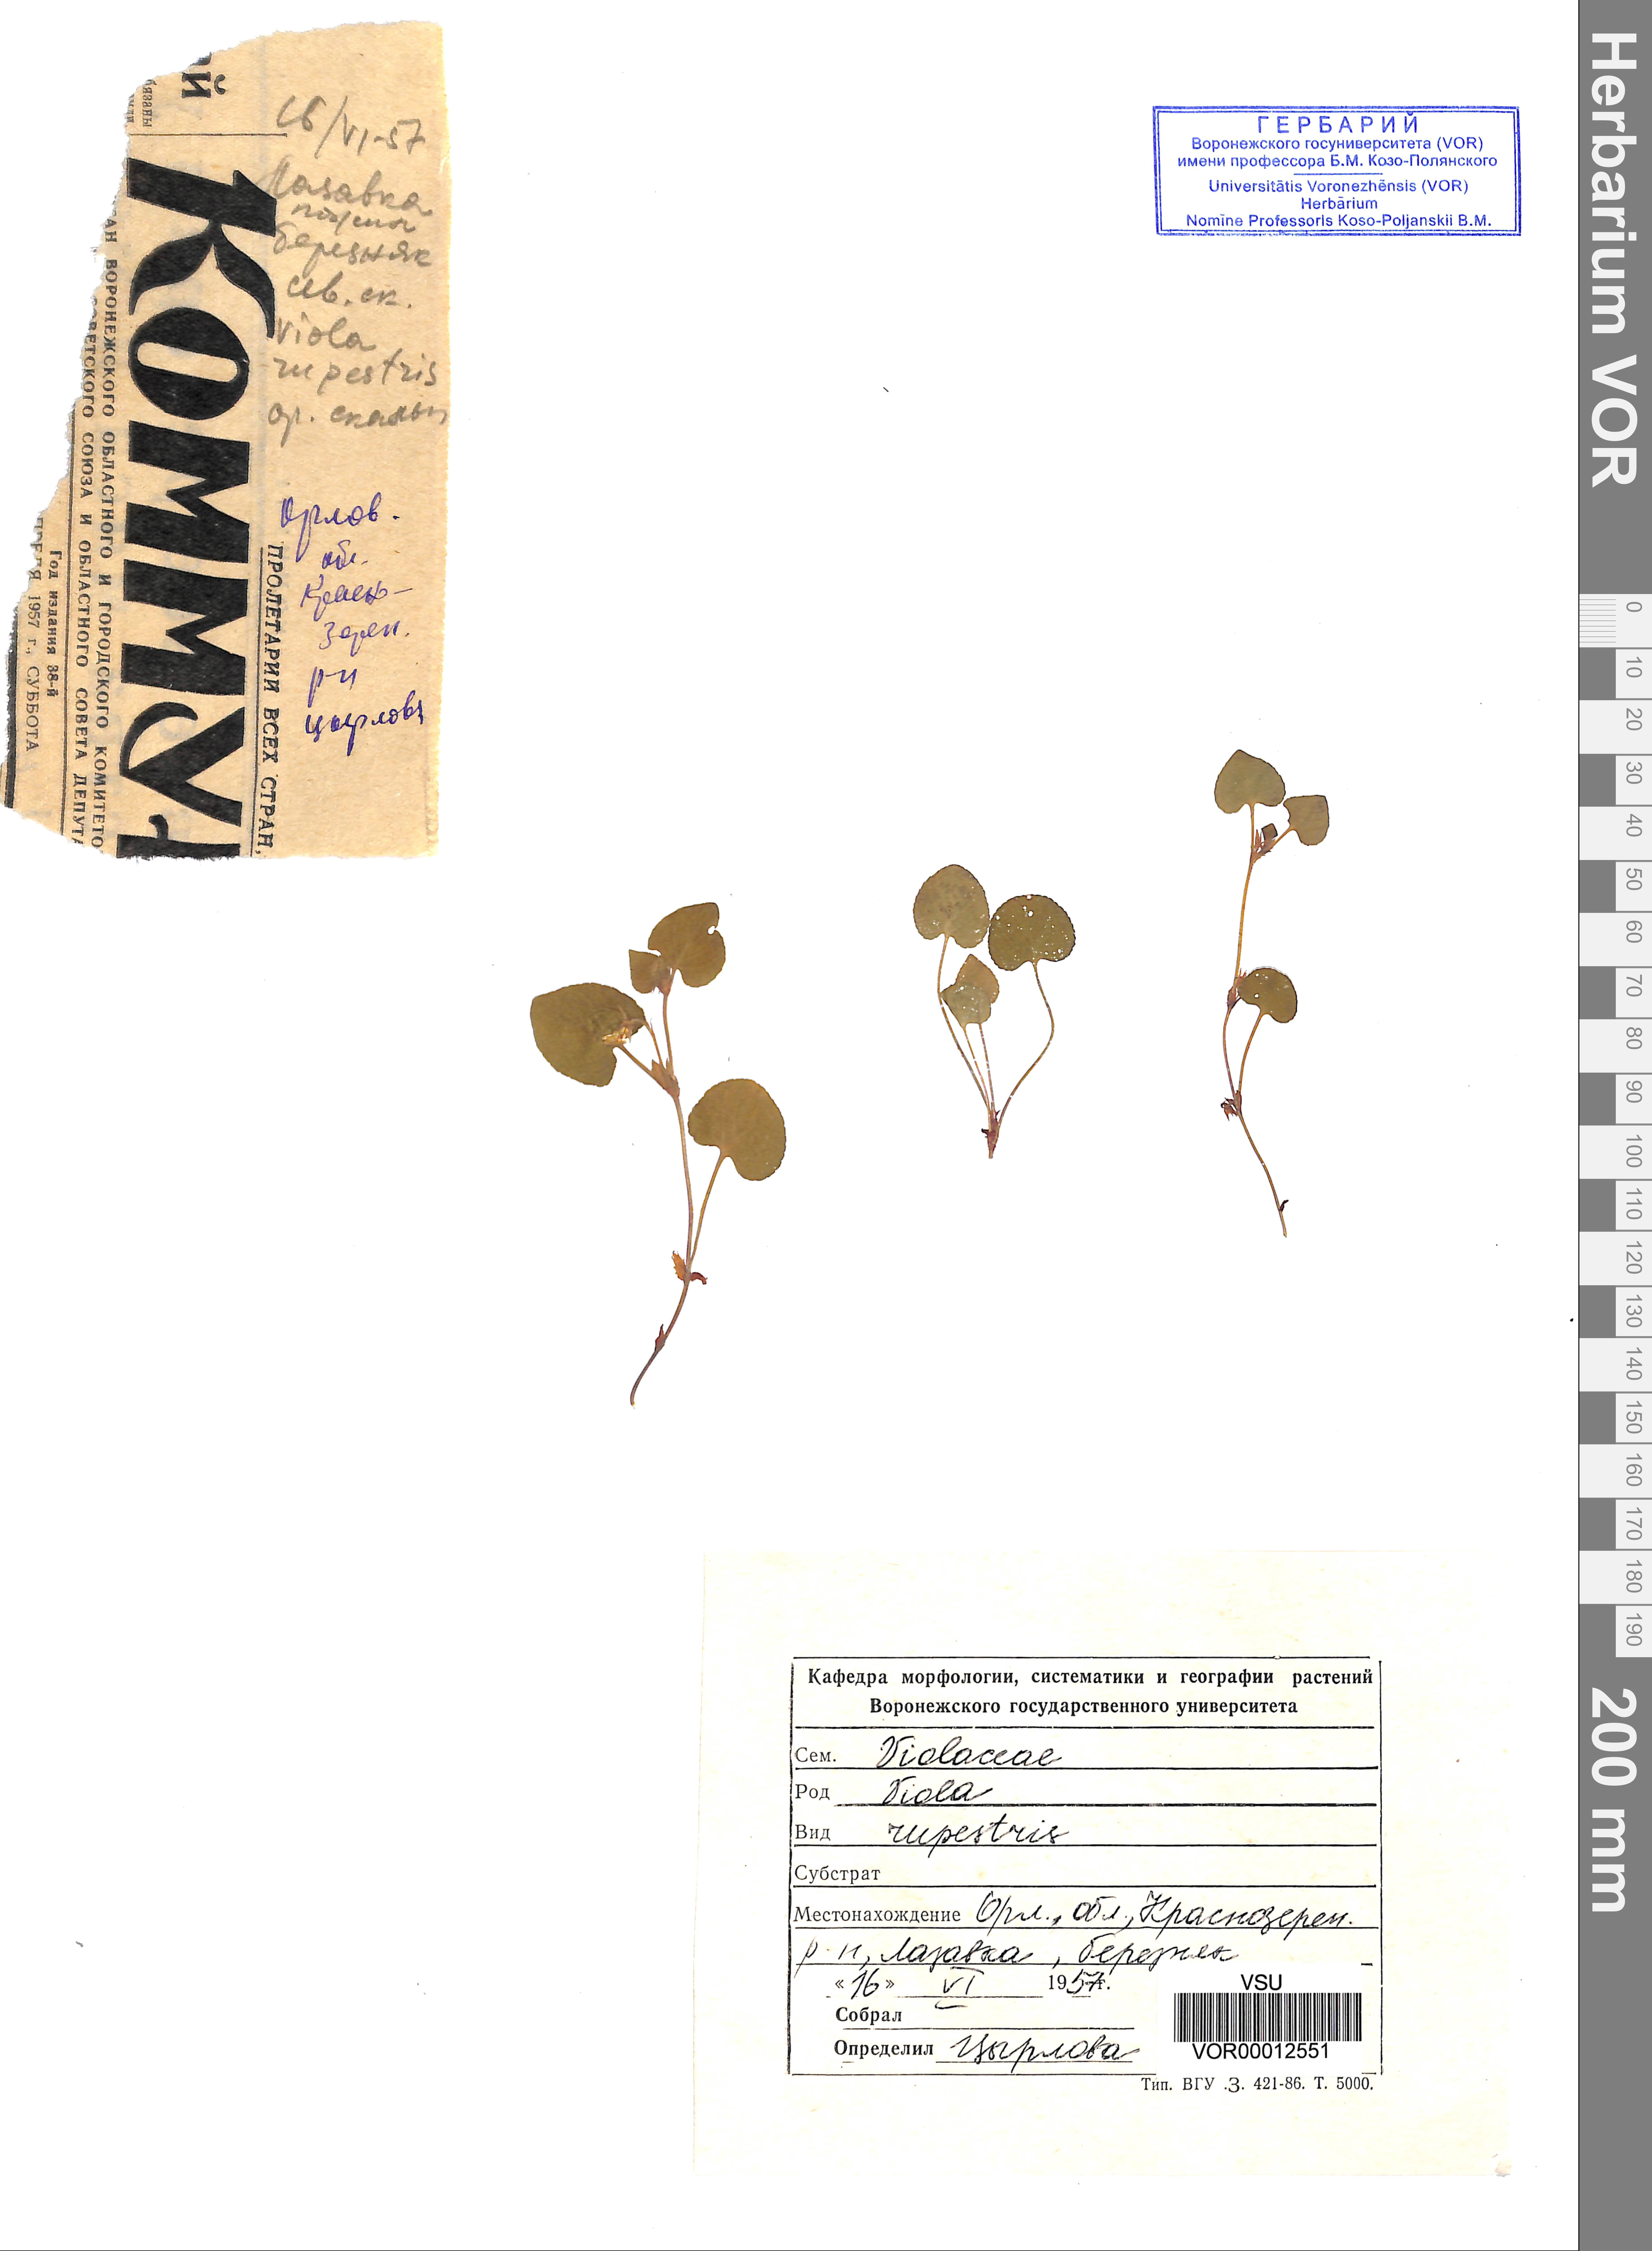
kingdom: Plantae
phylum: Tracheophyta
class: Magnoliopsida
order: Malpighiales
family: Violaceae
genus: Viola
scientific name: Viola rupestris
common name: Teesdale violet
